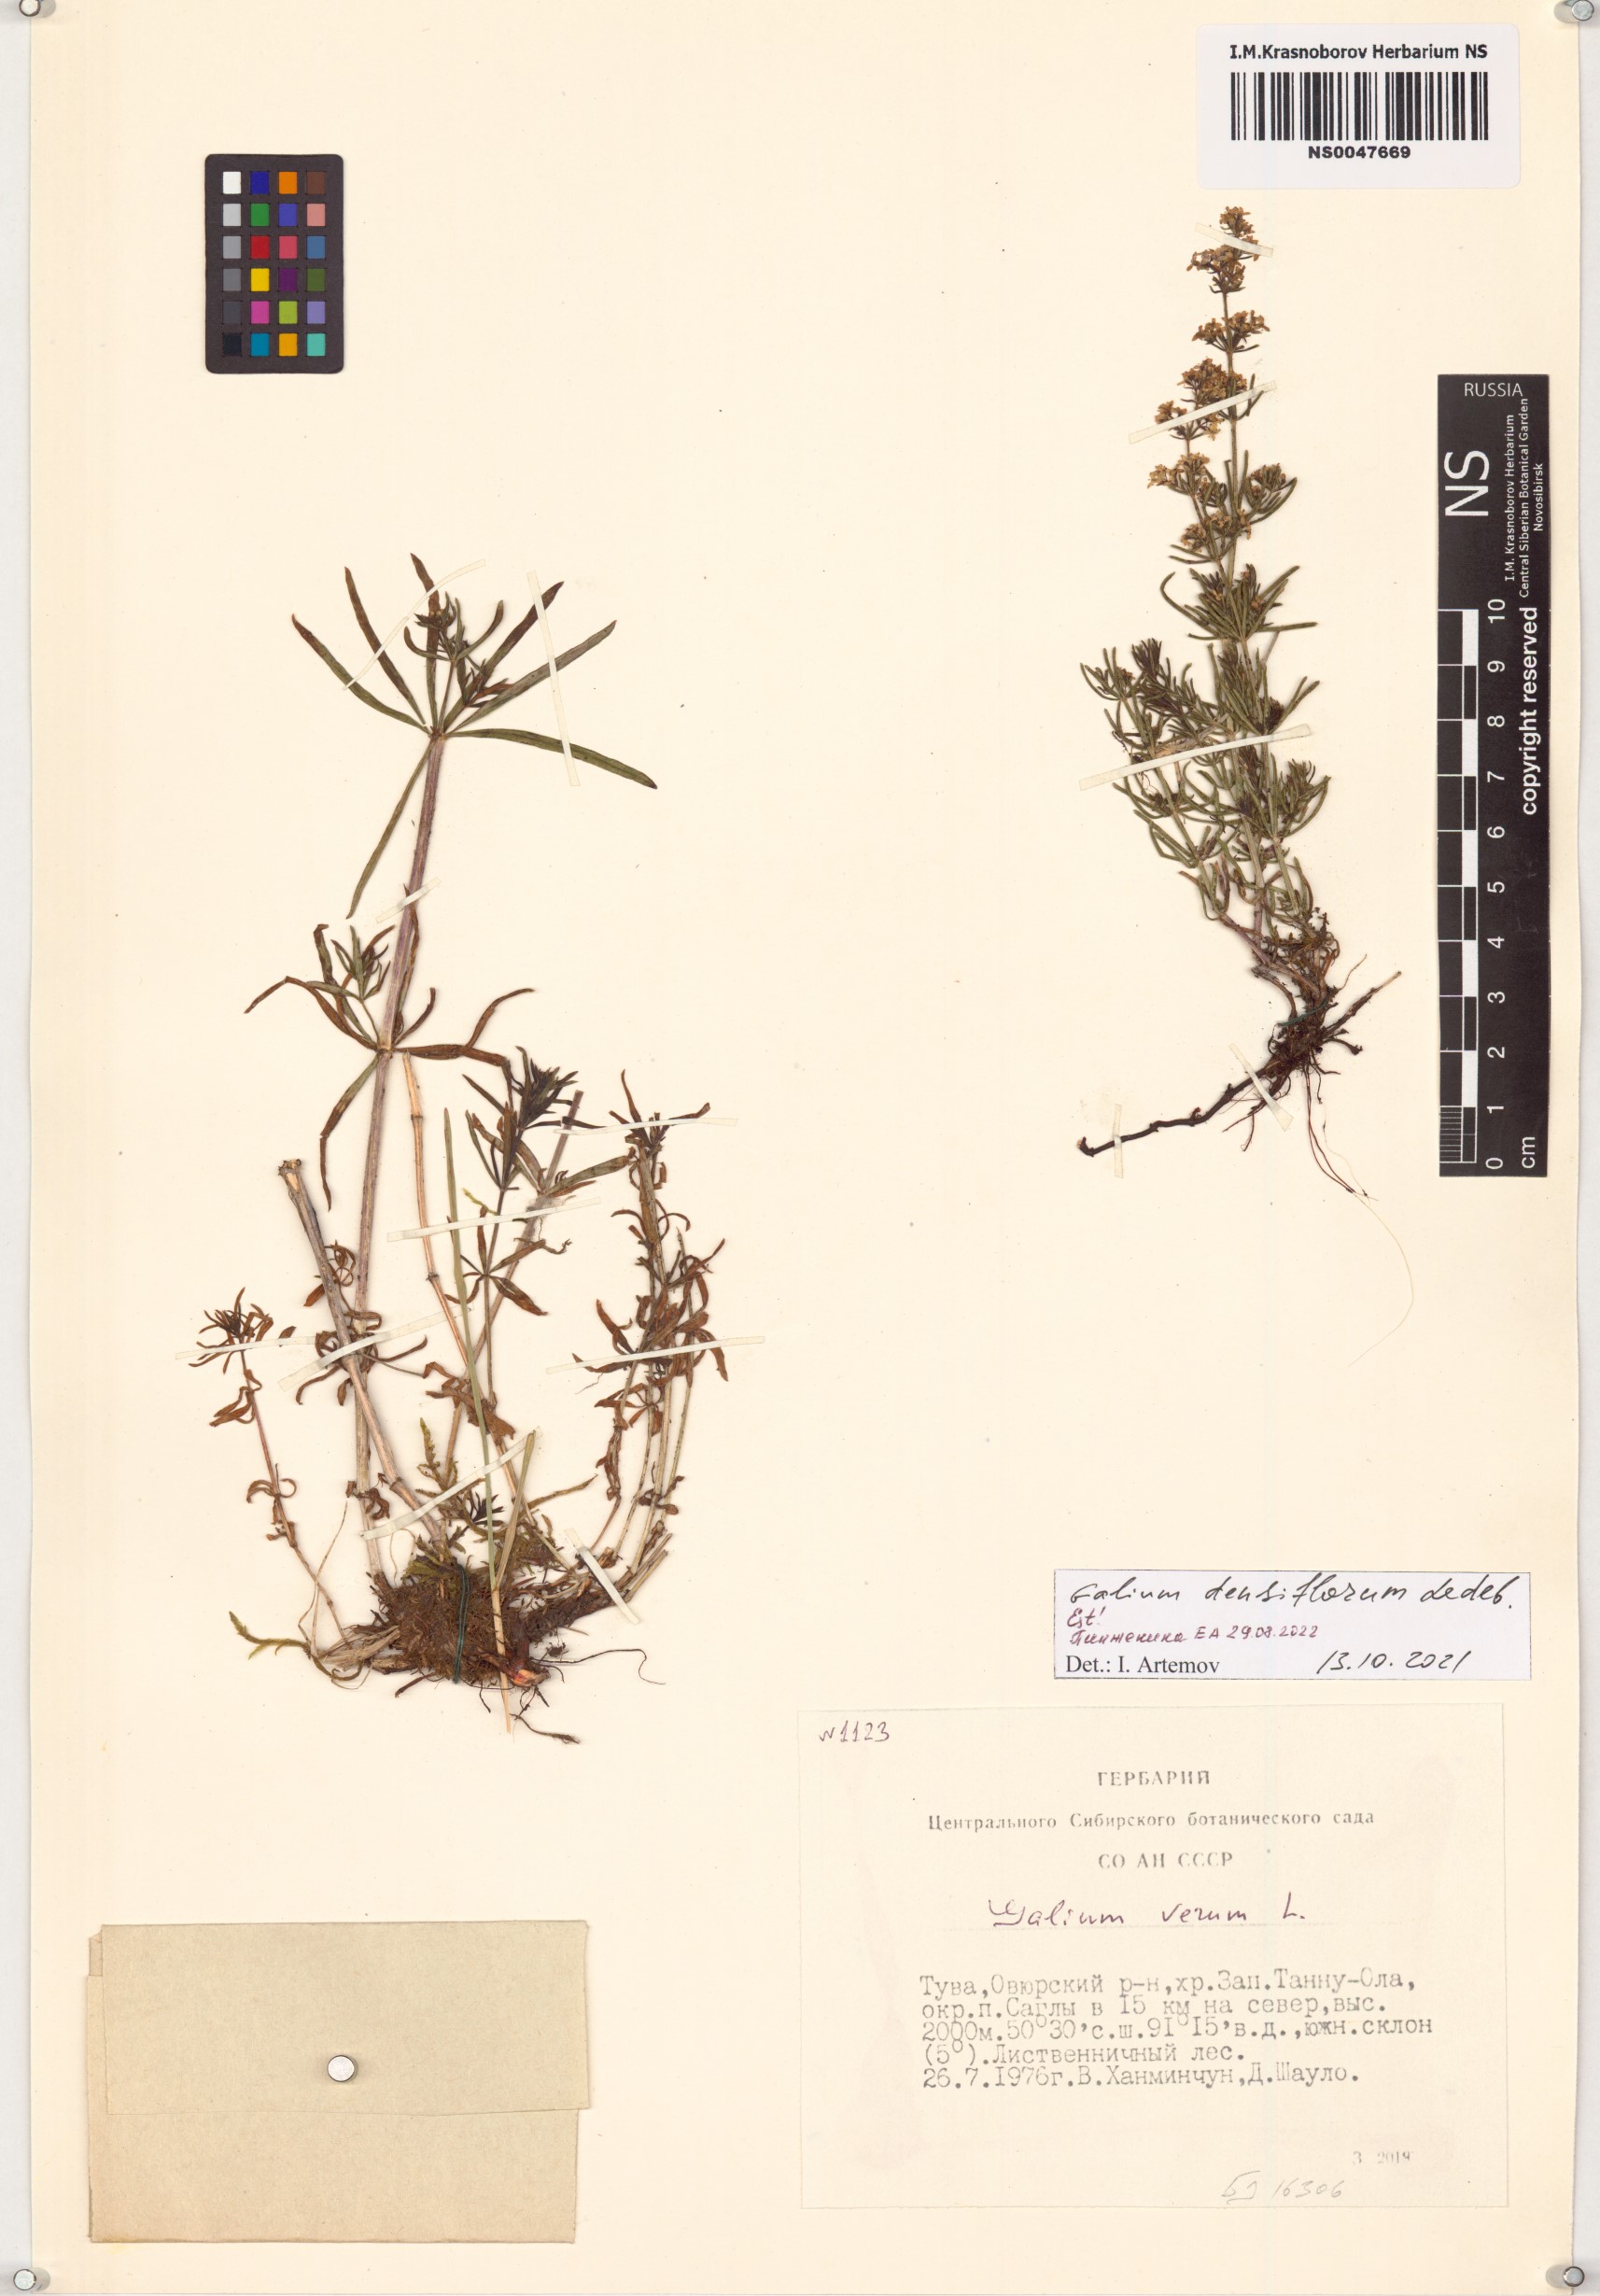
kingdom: Plantae
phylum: Tracheophyta
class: Magnoliopsida
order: Gentianales
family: Rubiaceae
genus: Galium
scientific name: Galium densiflorum
